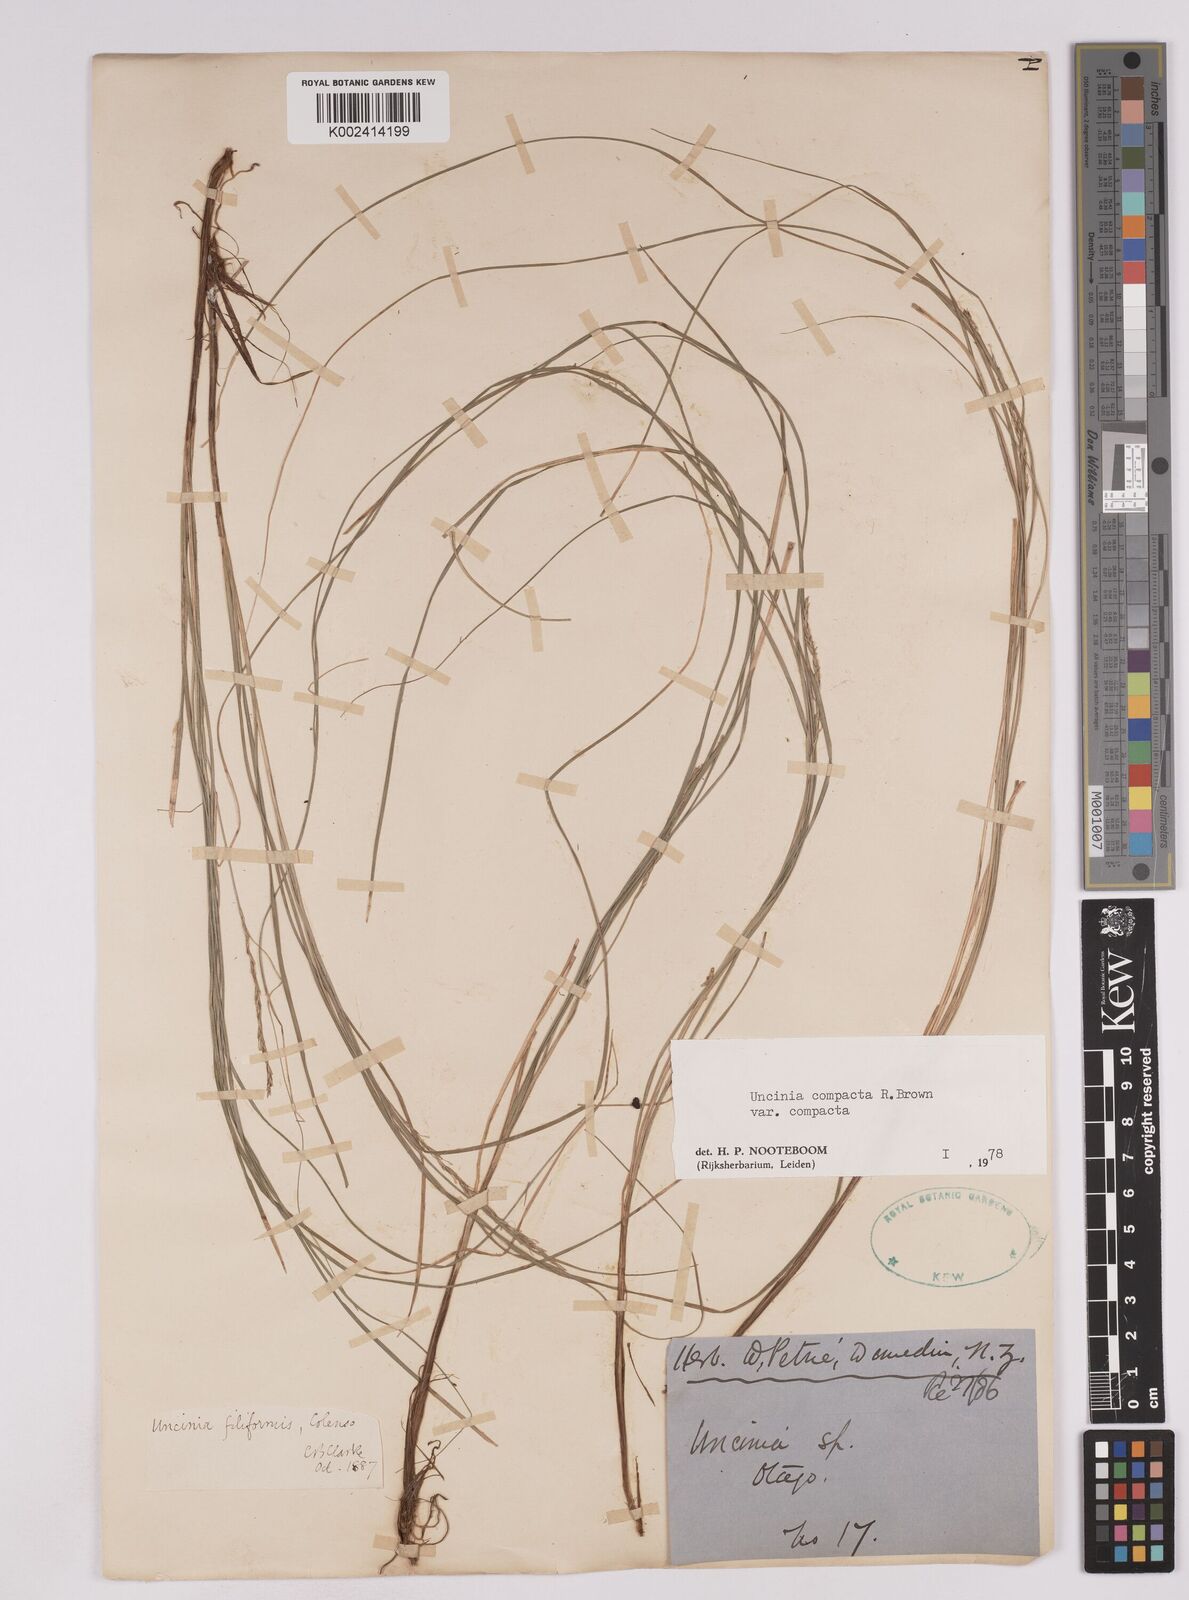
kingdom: Plantae
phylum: Tracheophyta
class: Liliopsida
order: Poales
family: Cyperaceae
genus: Carex
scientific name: Carex austrocompacta
